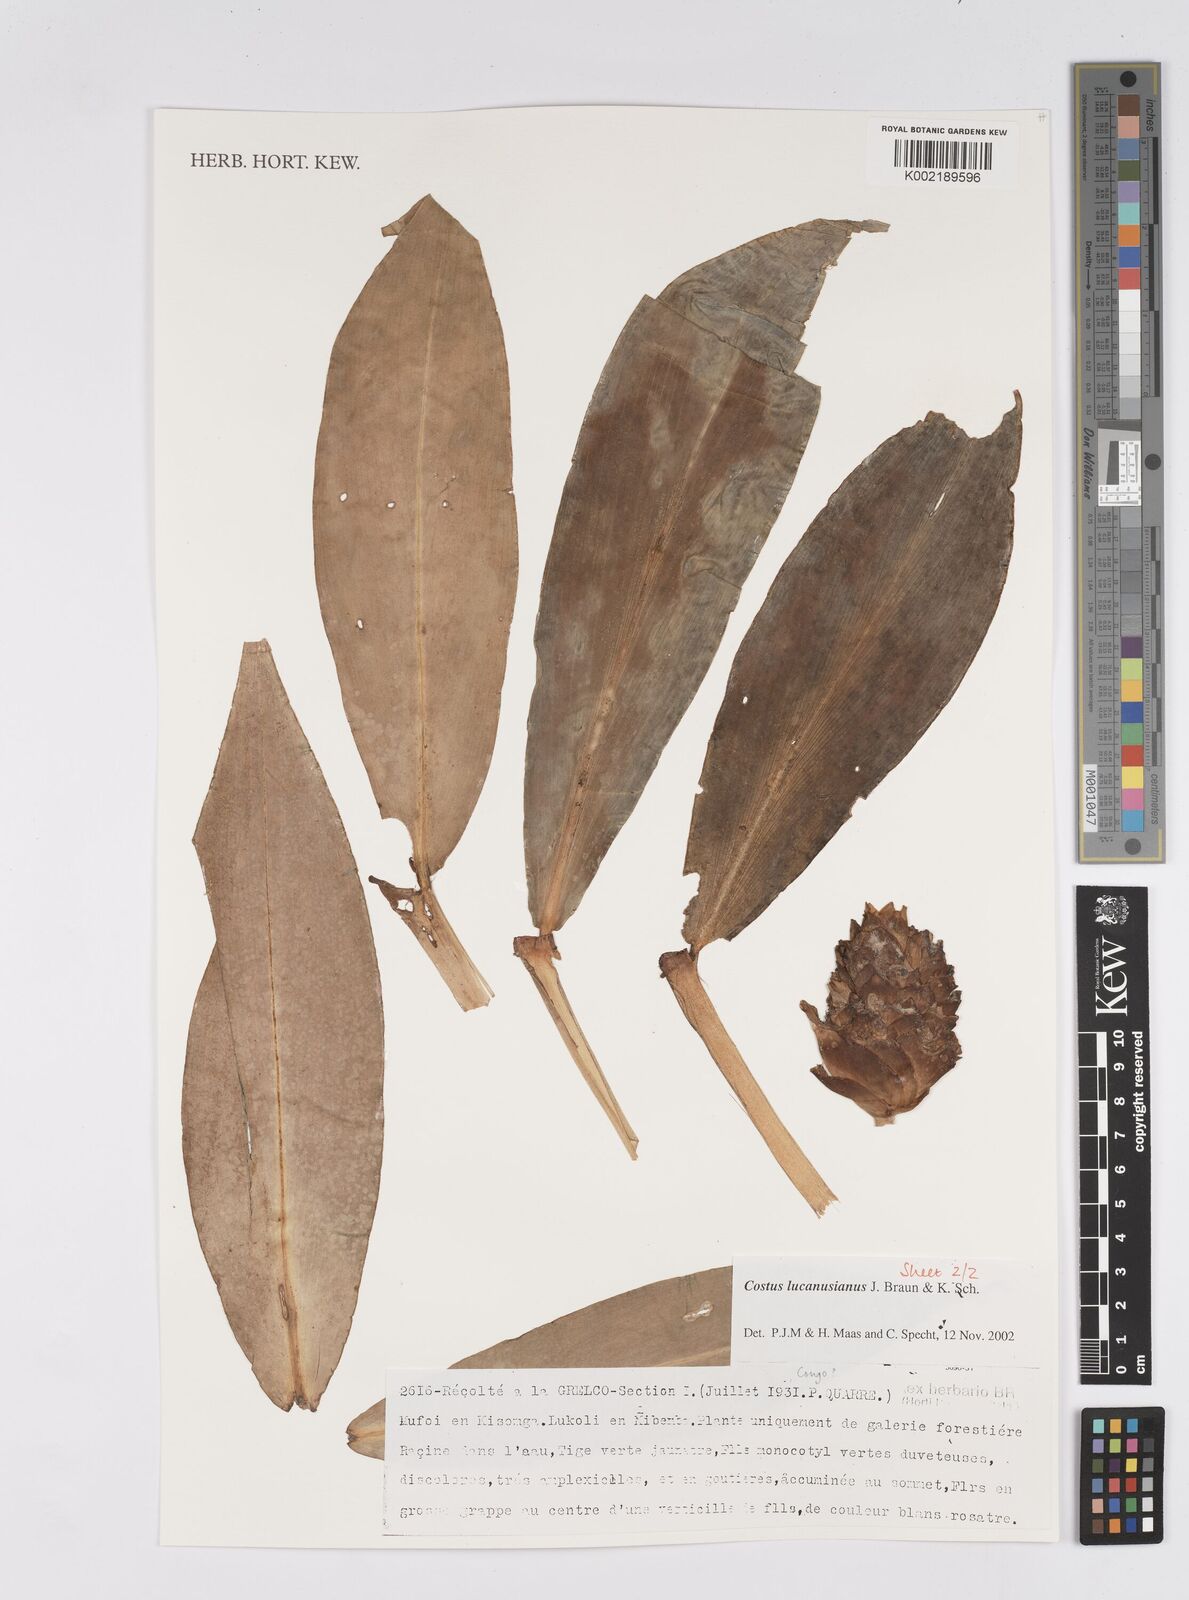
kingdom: Plantae
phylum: Tracheophyta
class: Liliopsida
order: Zingiberales
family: Costaceae
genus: Costus
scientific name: Costus lucanusianus
